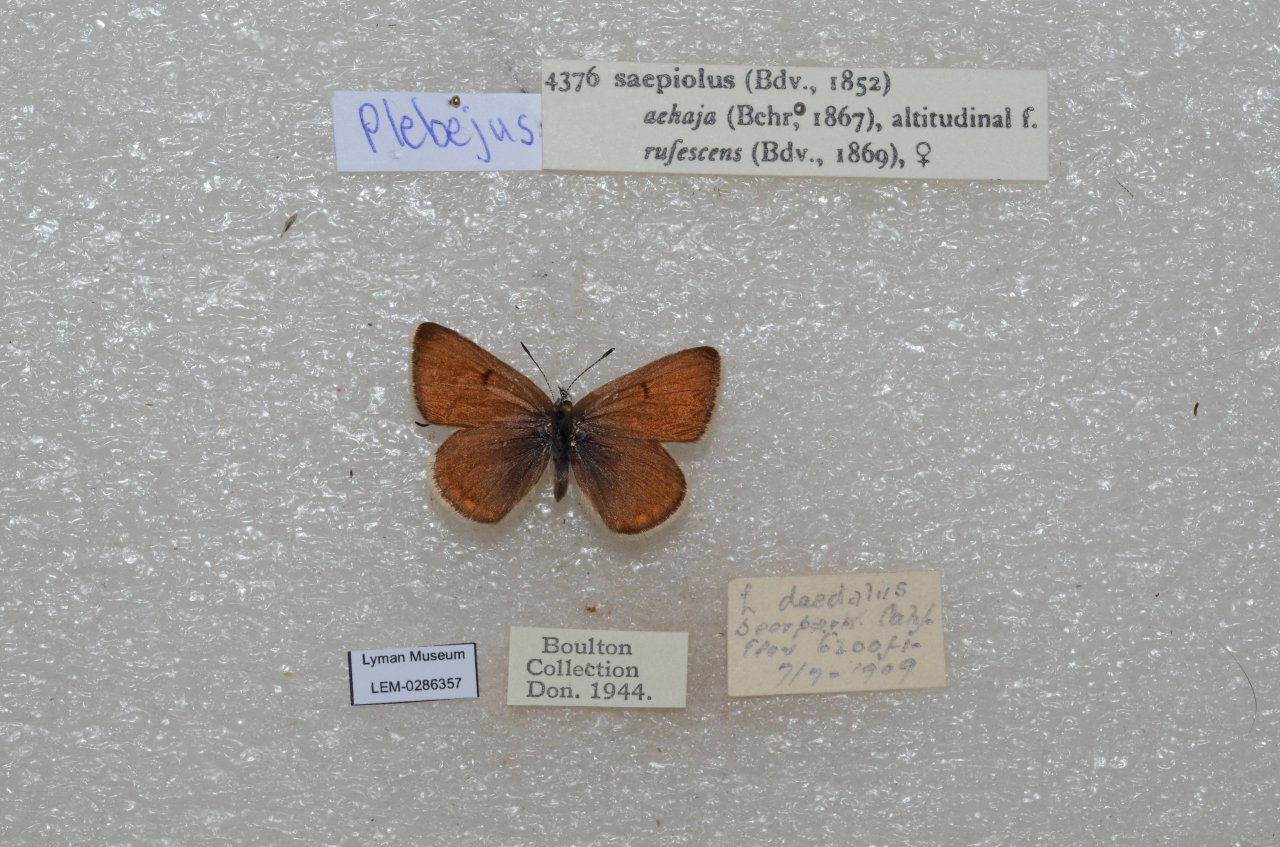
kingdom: Animalia
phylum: Arthropoda
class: Insecta
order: Lepidoptera
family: Lycaenidae
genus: Plebejus
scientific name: Plebejus saepiolus
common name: Greenish Blue
